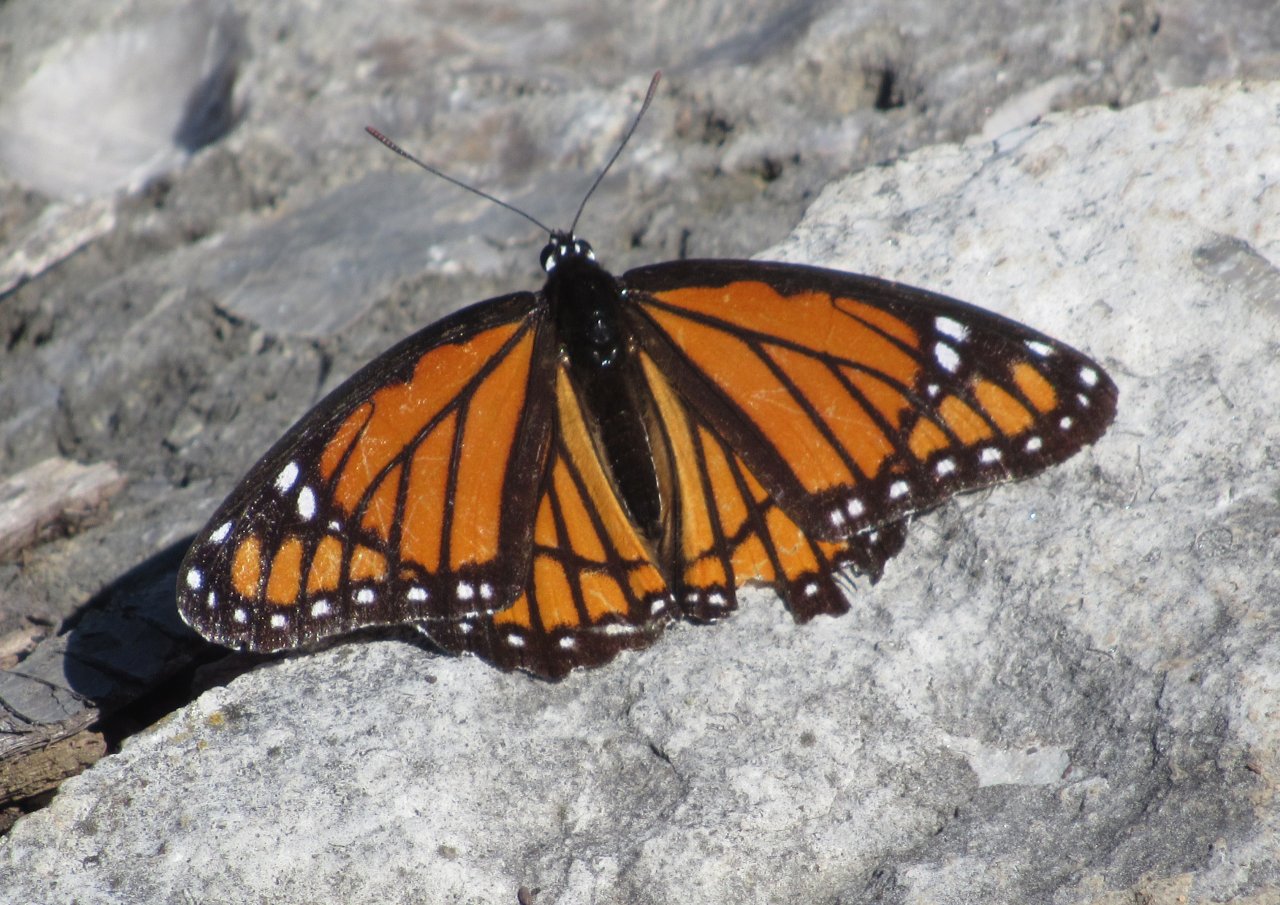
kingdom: Animalia
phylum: Arthropoda
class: Insecta
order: Lepidoptera
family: Nymphalidae
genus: Limenitis
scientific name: Limenitis archippus
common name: Viceroy
